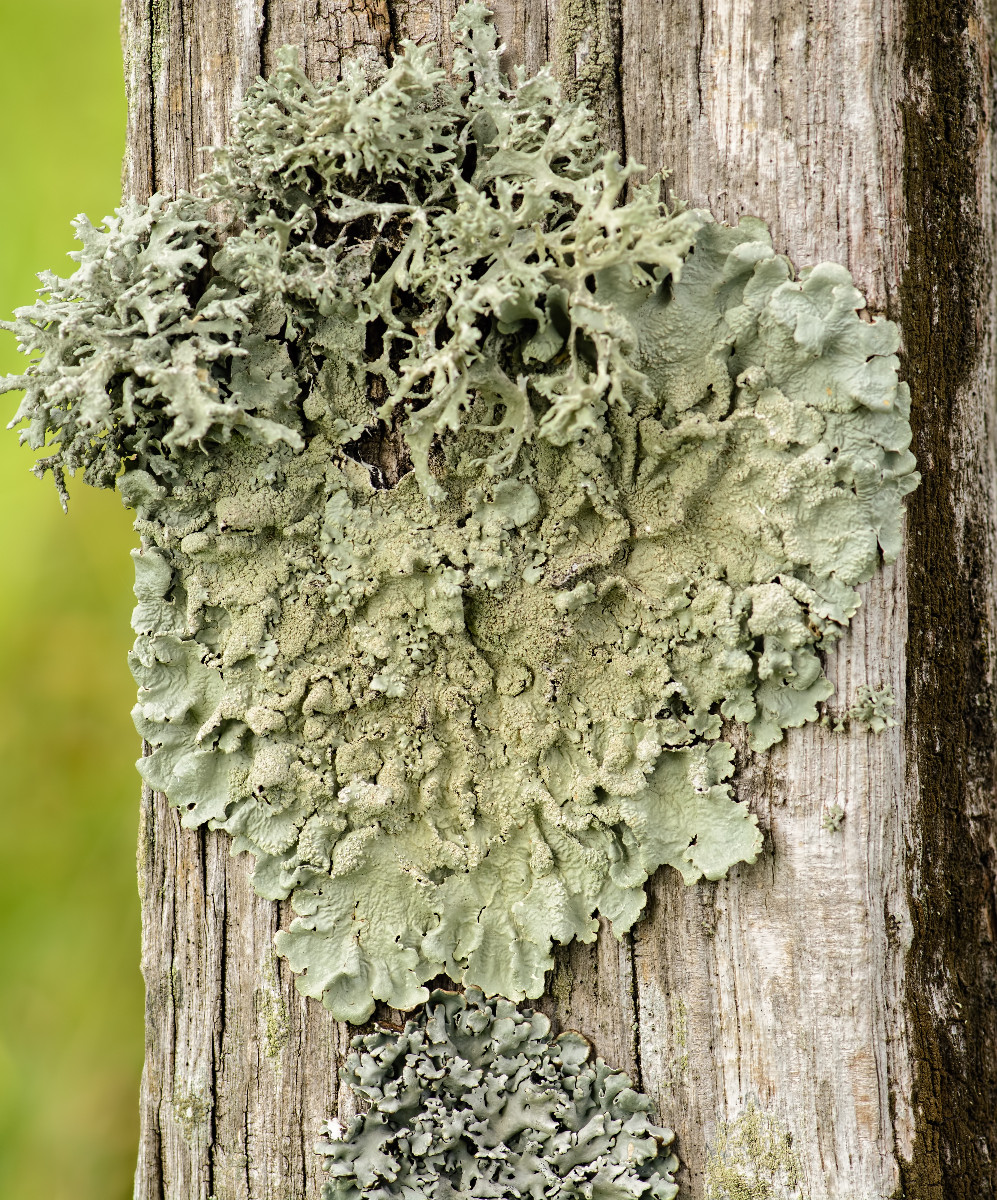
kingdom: Fungi
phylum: Ascomycota
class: Lecanoromycetes
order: Lecanorales
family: Parmeliaceae
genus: Flavoparmelia
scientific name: Flavoparmelia caperata
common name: gulgrøn skållav
